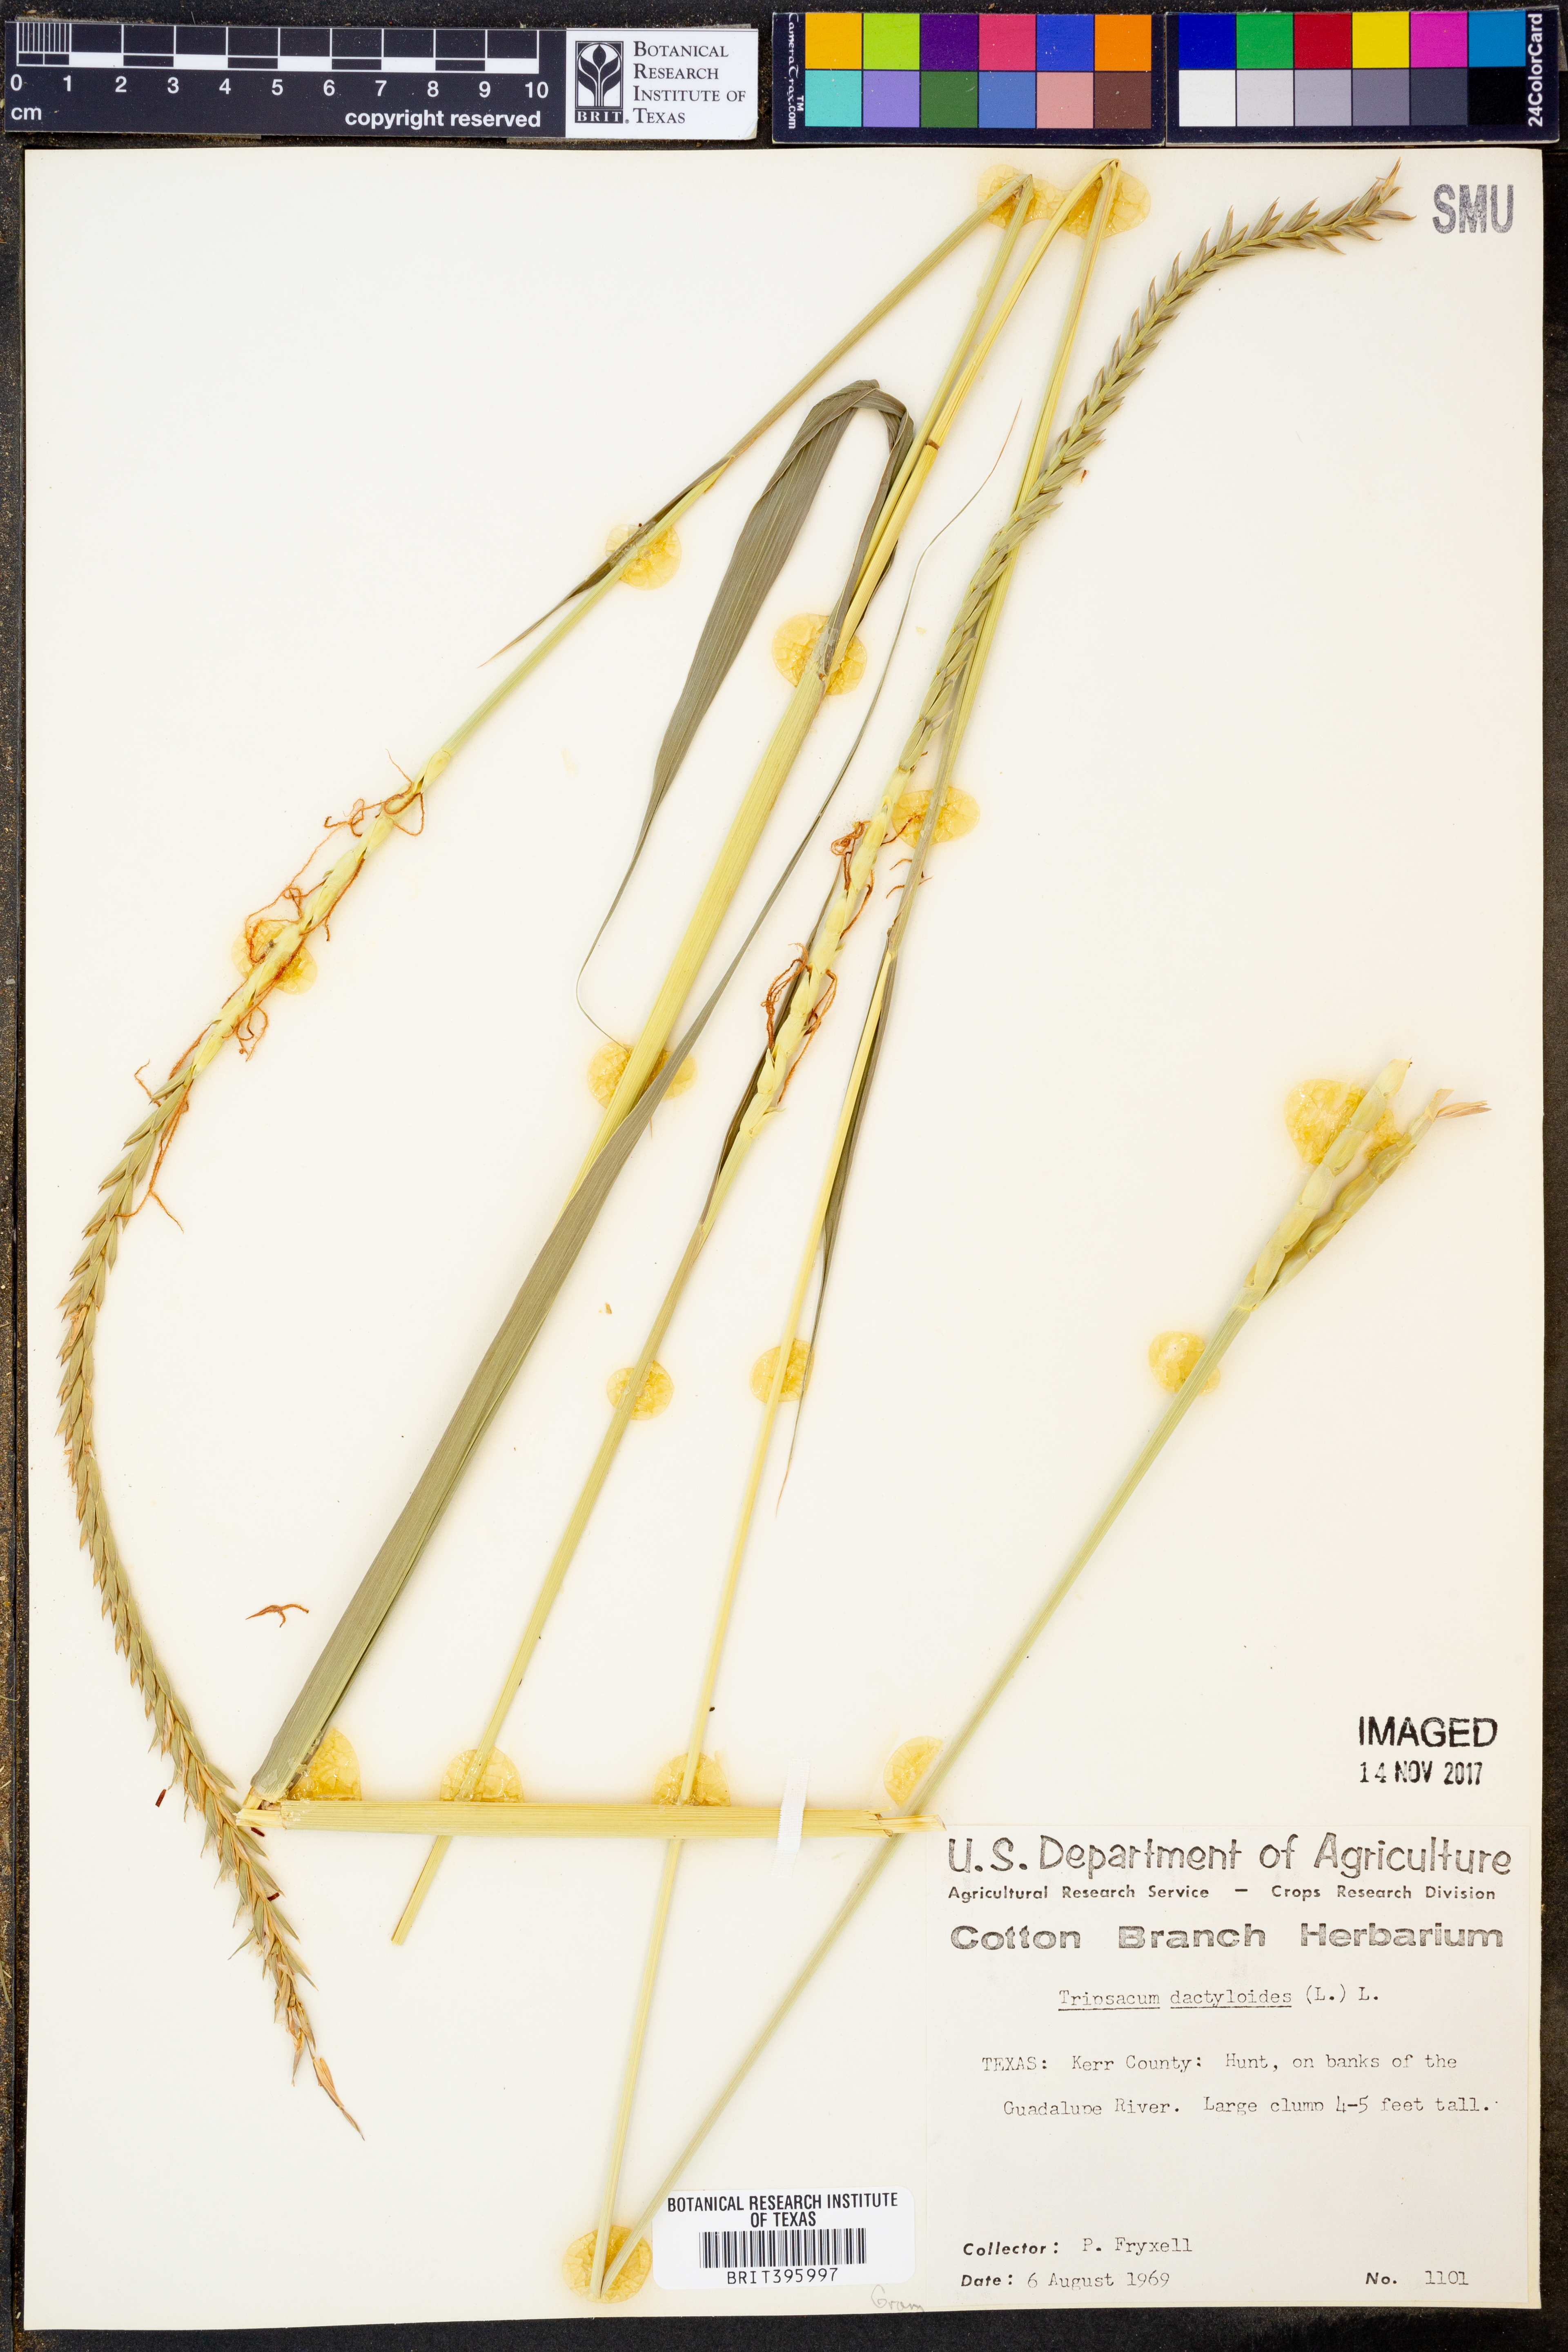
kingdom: Plantae
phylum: Tracheophyta
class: Liliopsida
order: Poales
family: Poaceae
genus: Tripsacum
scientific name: Tripsacum dactyloides
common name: Buffalo-grass
